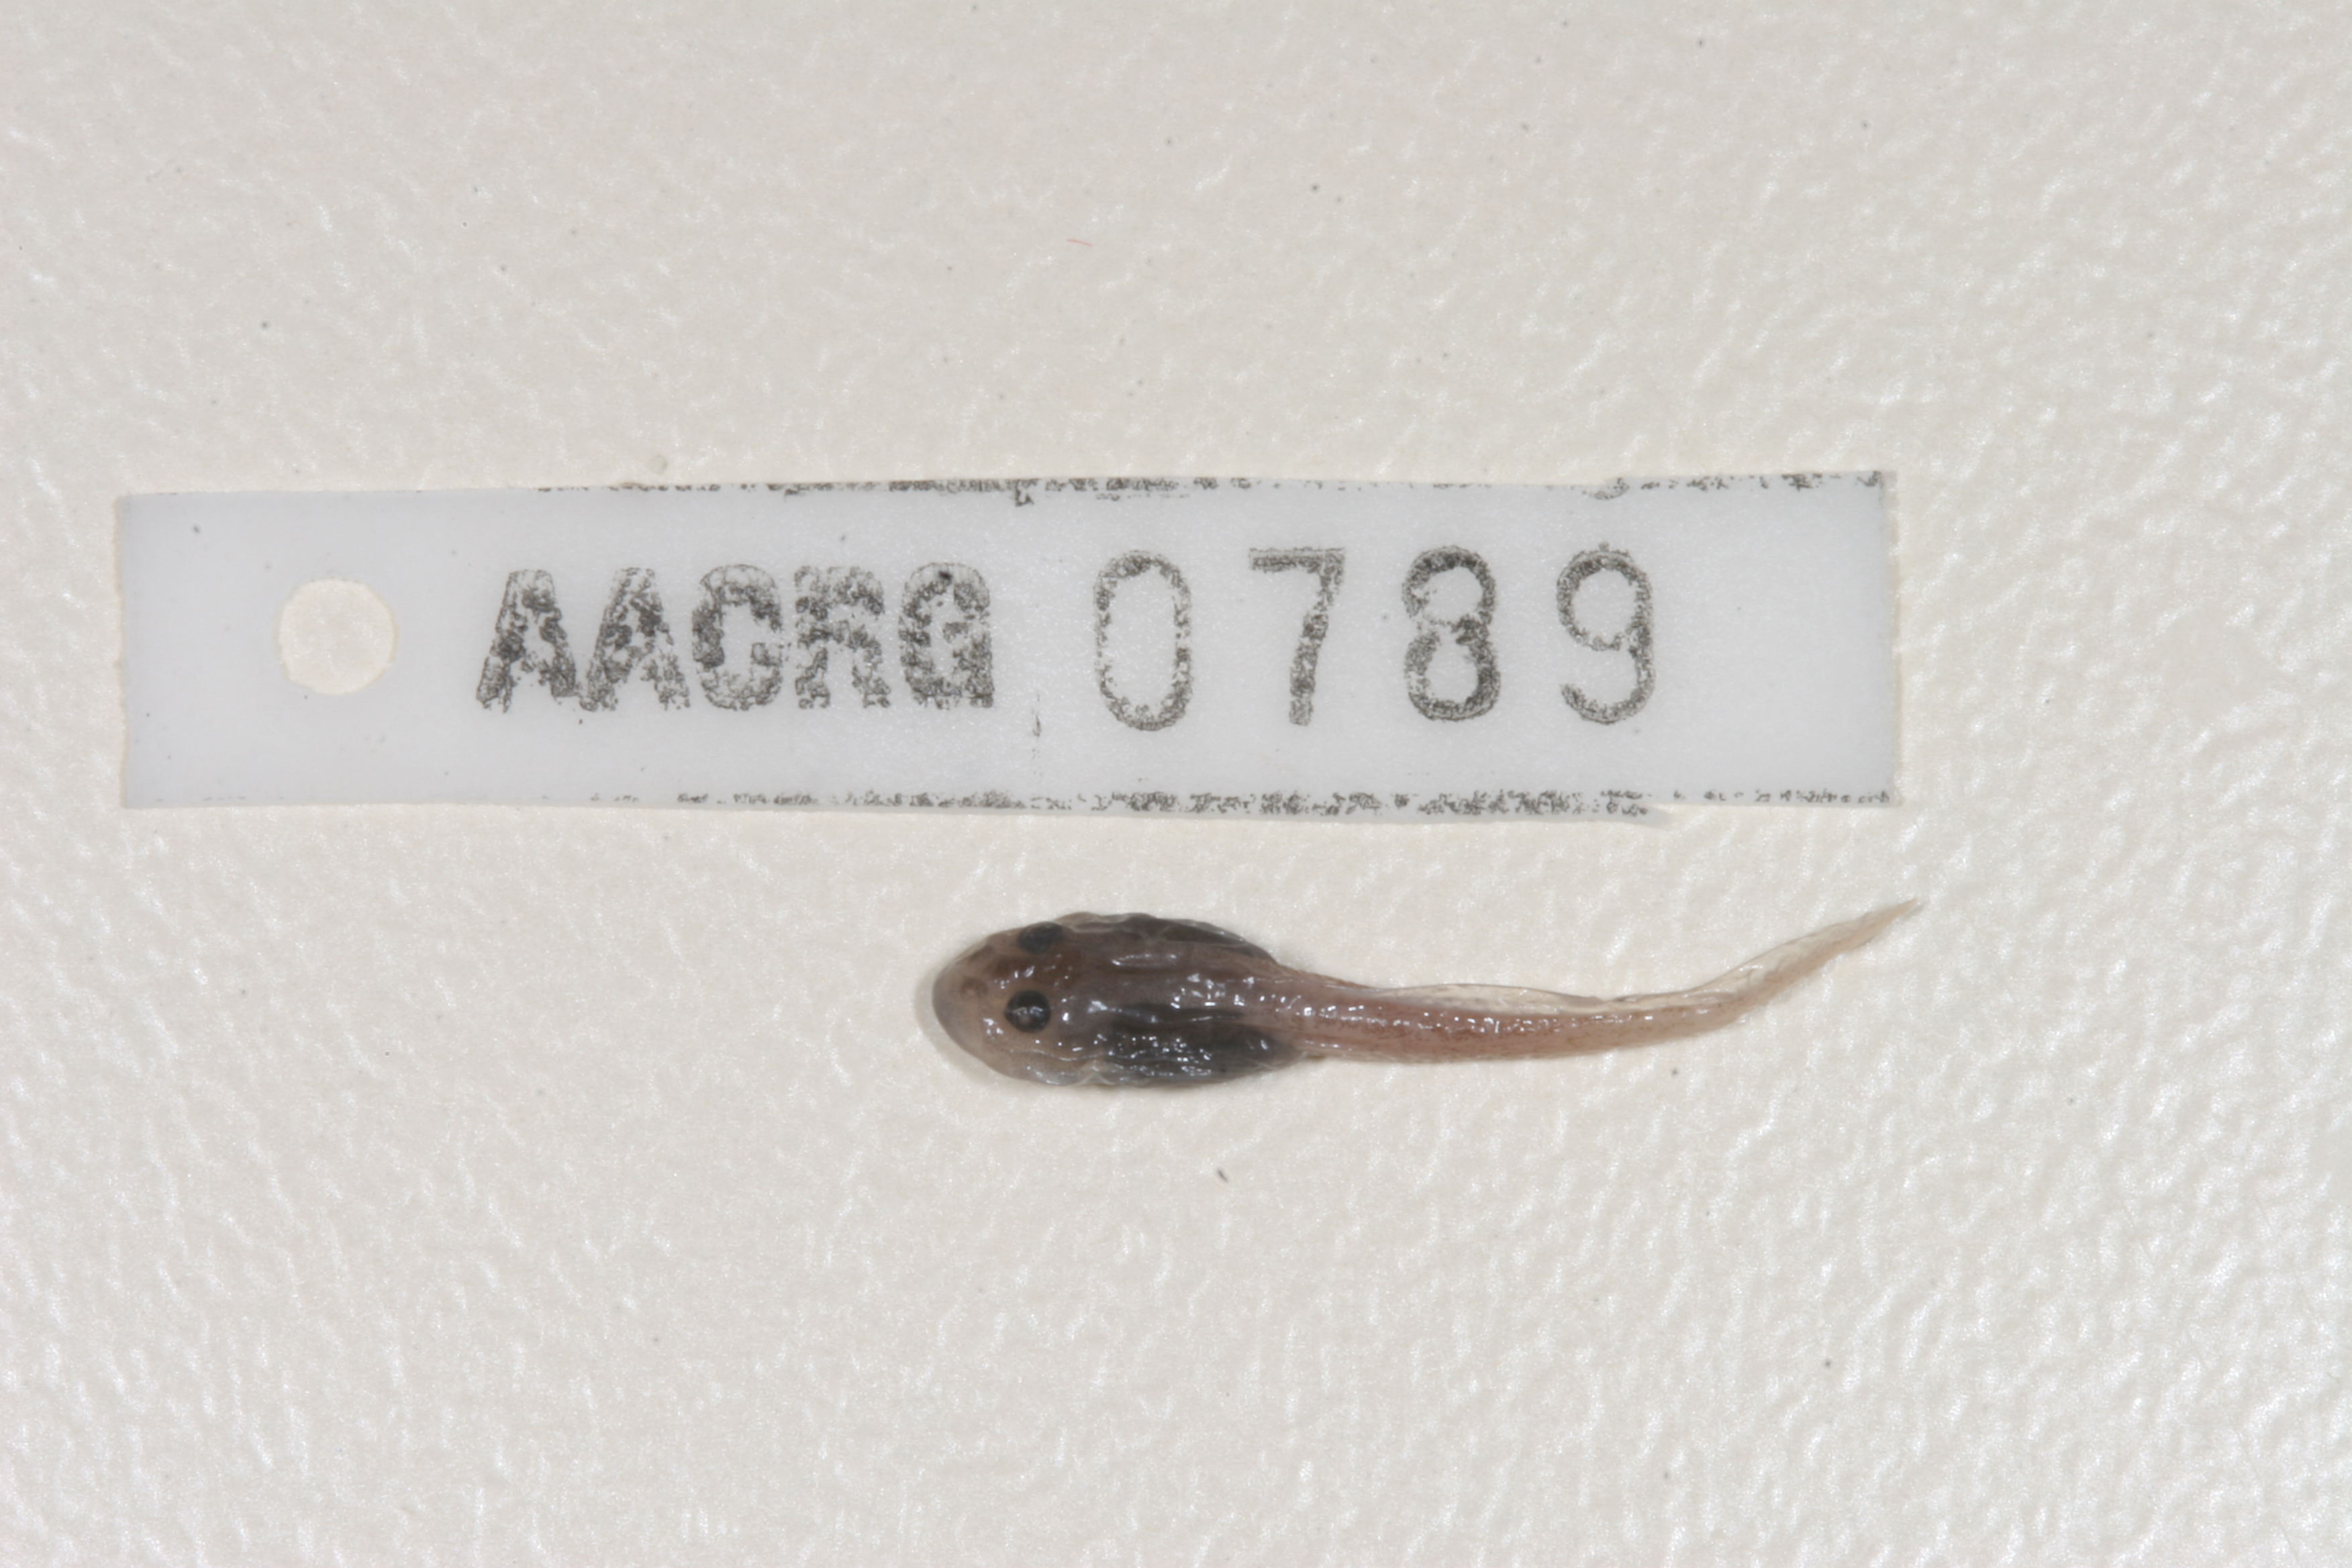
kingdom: Animalia
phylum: Chordata
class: Amphibia
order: Anura
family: Pyxicephalidae
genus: Amietia
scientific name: Amietia delalandii
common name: Delalande's river frog
